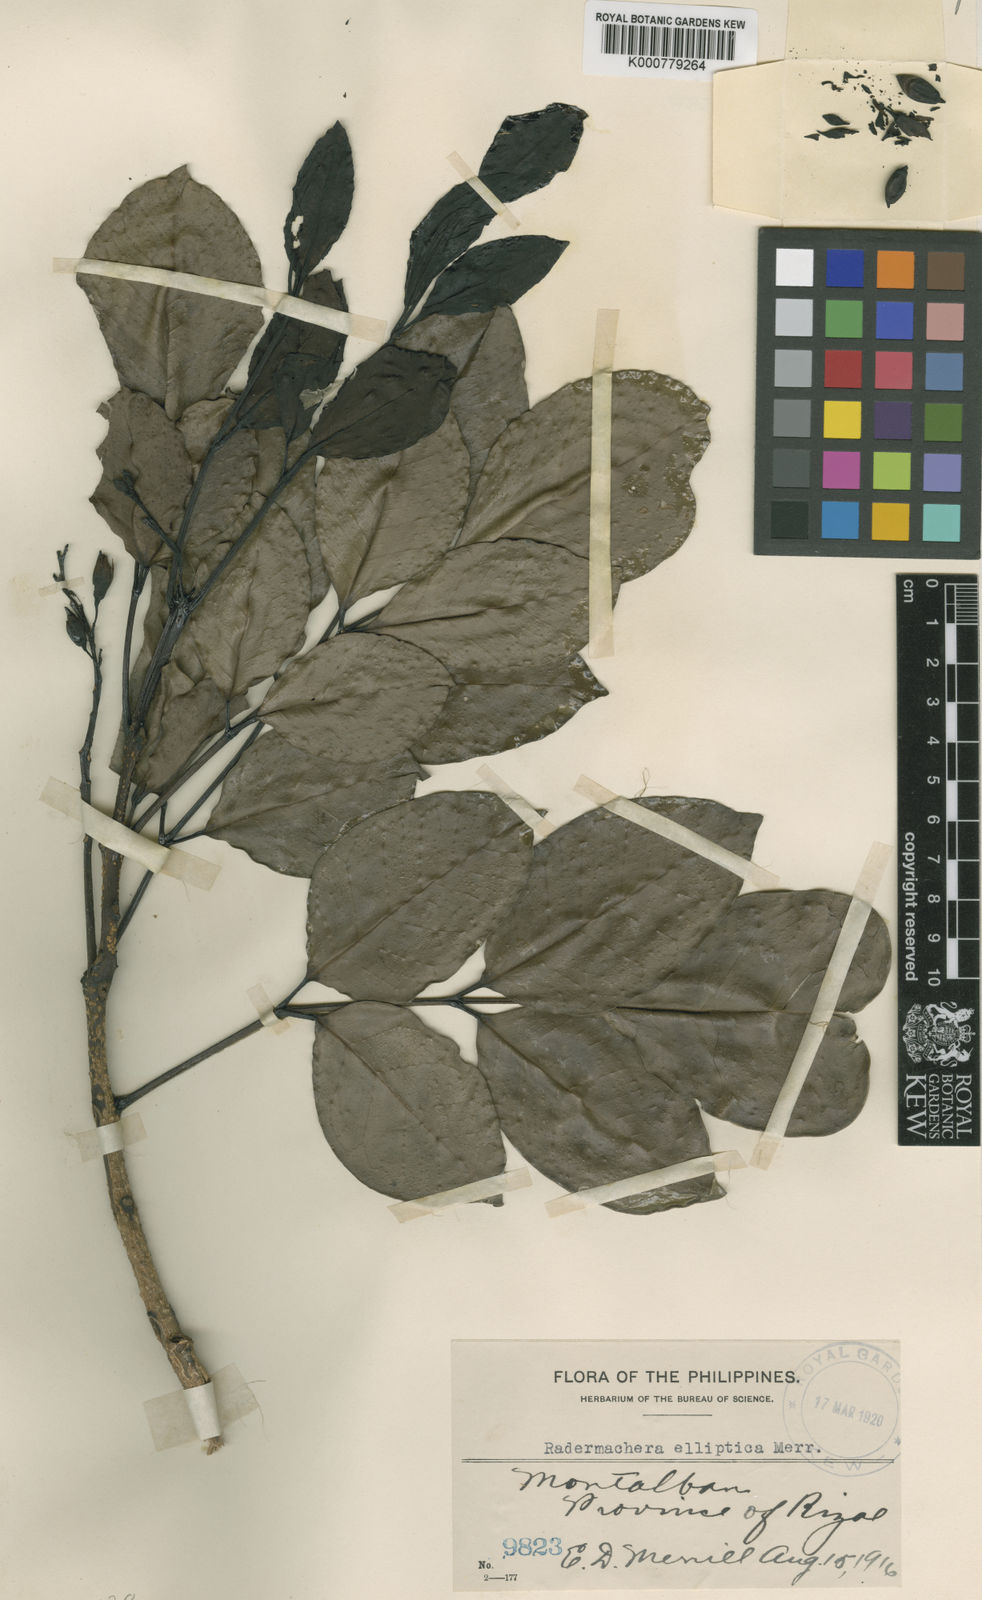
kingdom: Plantae
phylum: Tracheophyta
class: Magnoliopsida
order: Lamiales
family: Bignoniaceae
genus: Radermachera
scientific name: Radermachera gigantea
